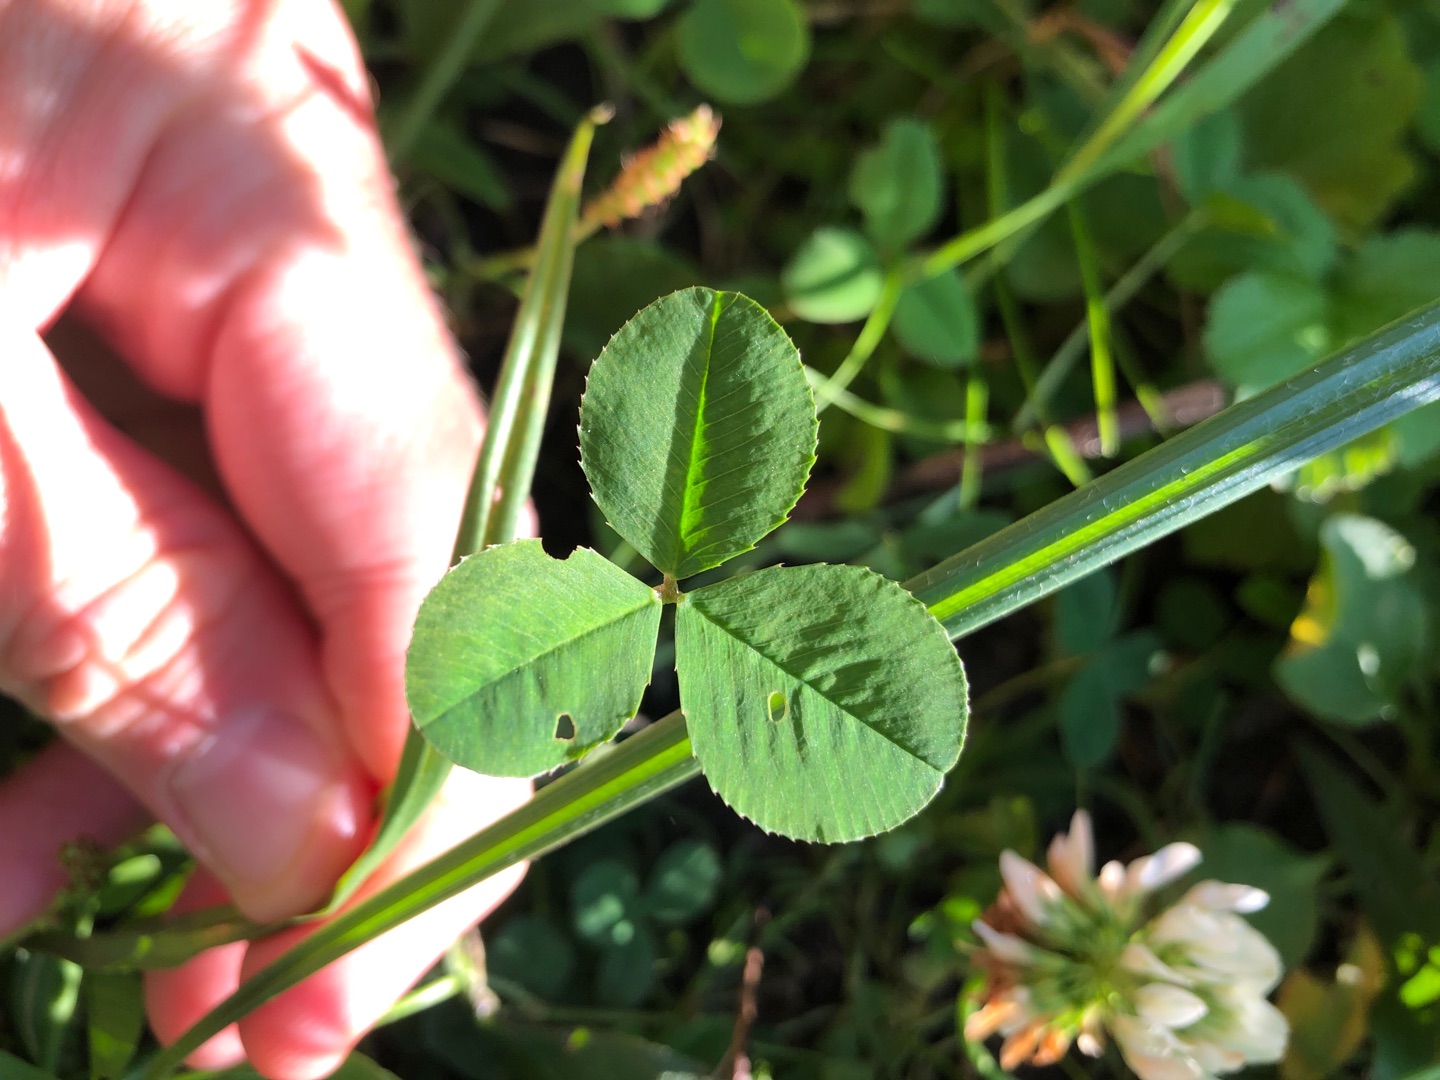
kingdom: Plantae
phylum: Tracheophyta
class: Magnoliopsida
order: Fabales
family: Fabaceae
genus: Trifolium
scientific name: Trifolium repens
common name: Hvid-kløver
